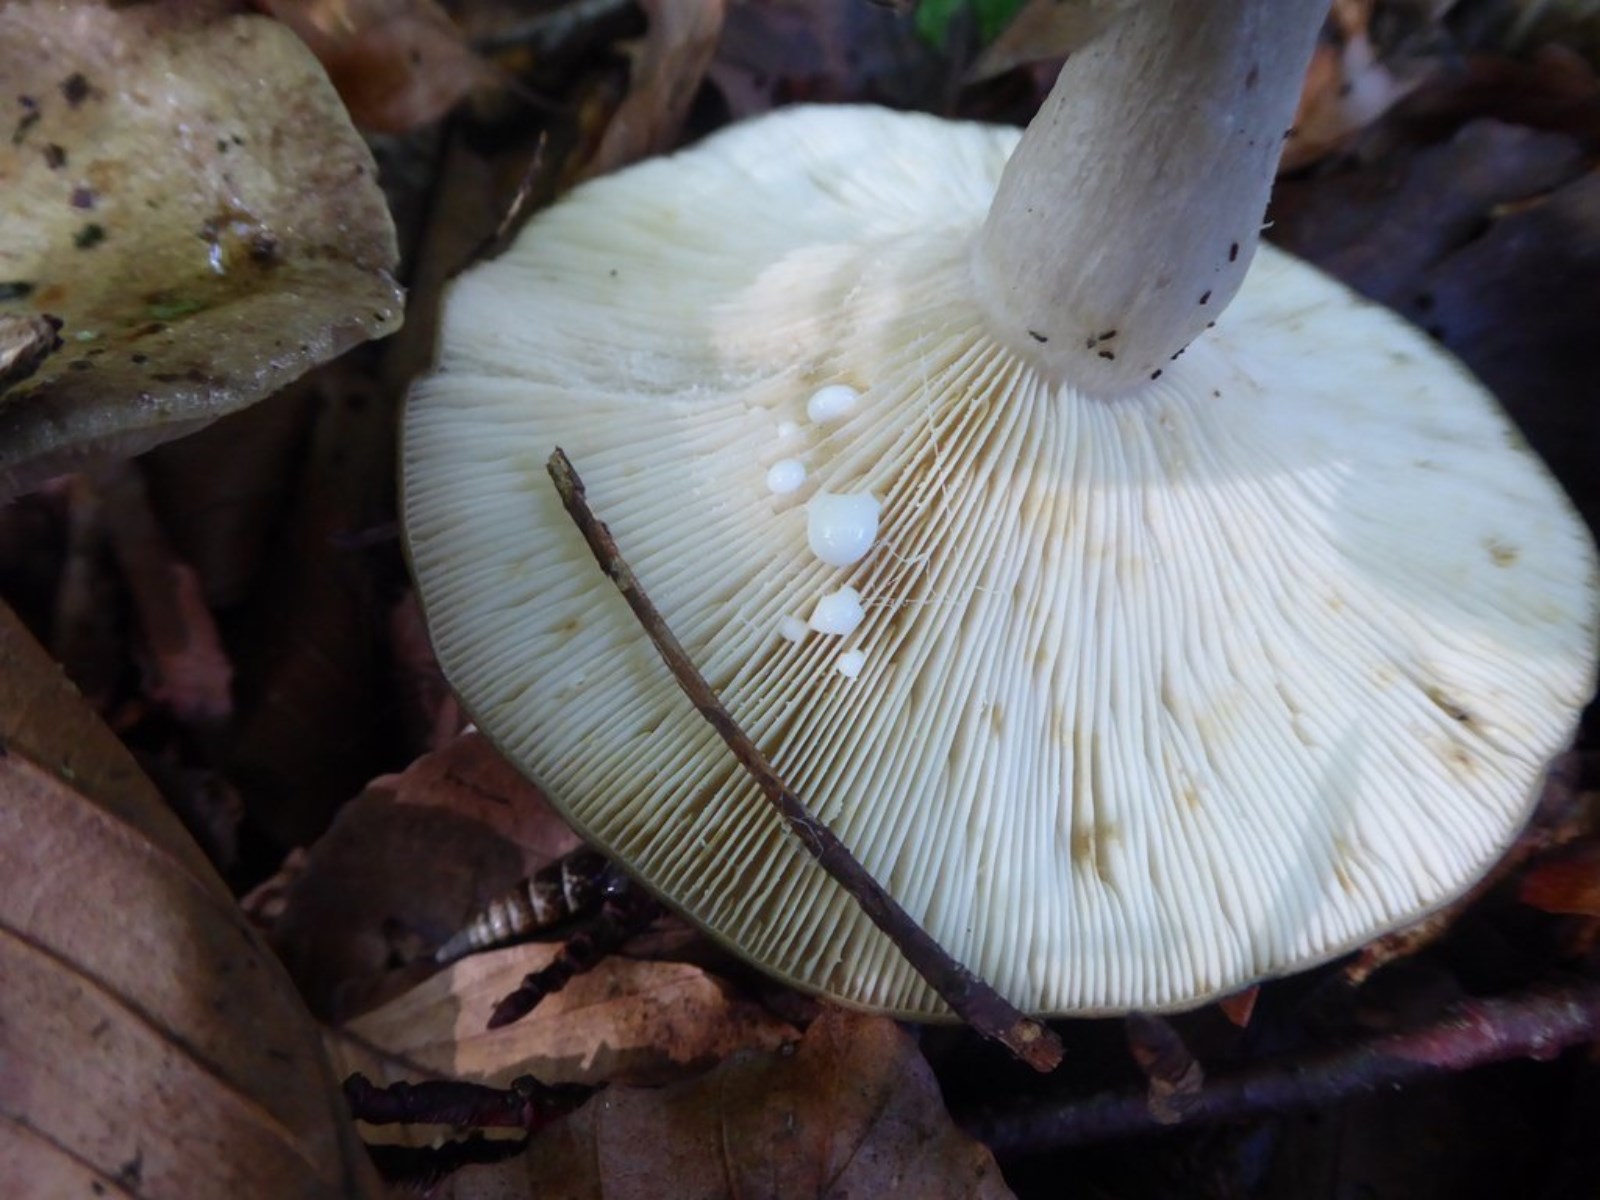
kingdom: Fungi
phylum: Basidiomycota
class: Agaricomycetes
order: Russulales
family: Russulaceae
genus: Lactarius
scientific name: Lactarius fluens
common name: lysrandet mælkehat
